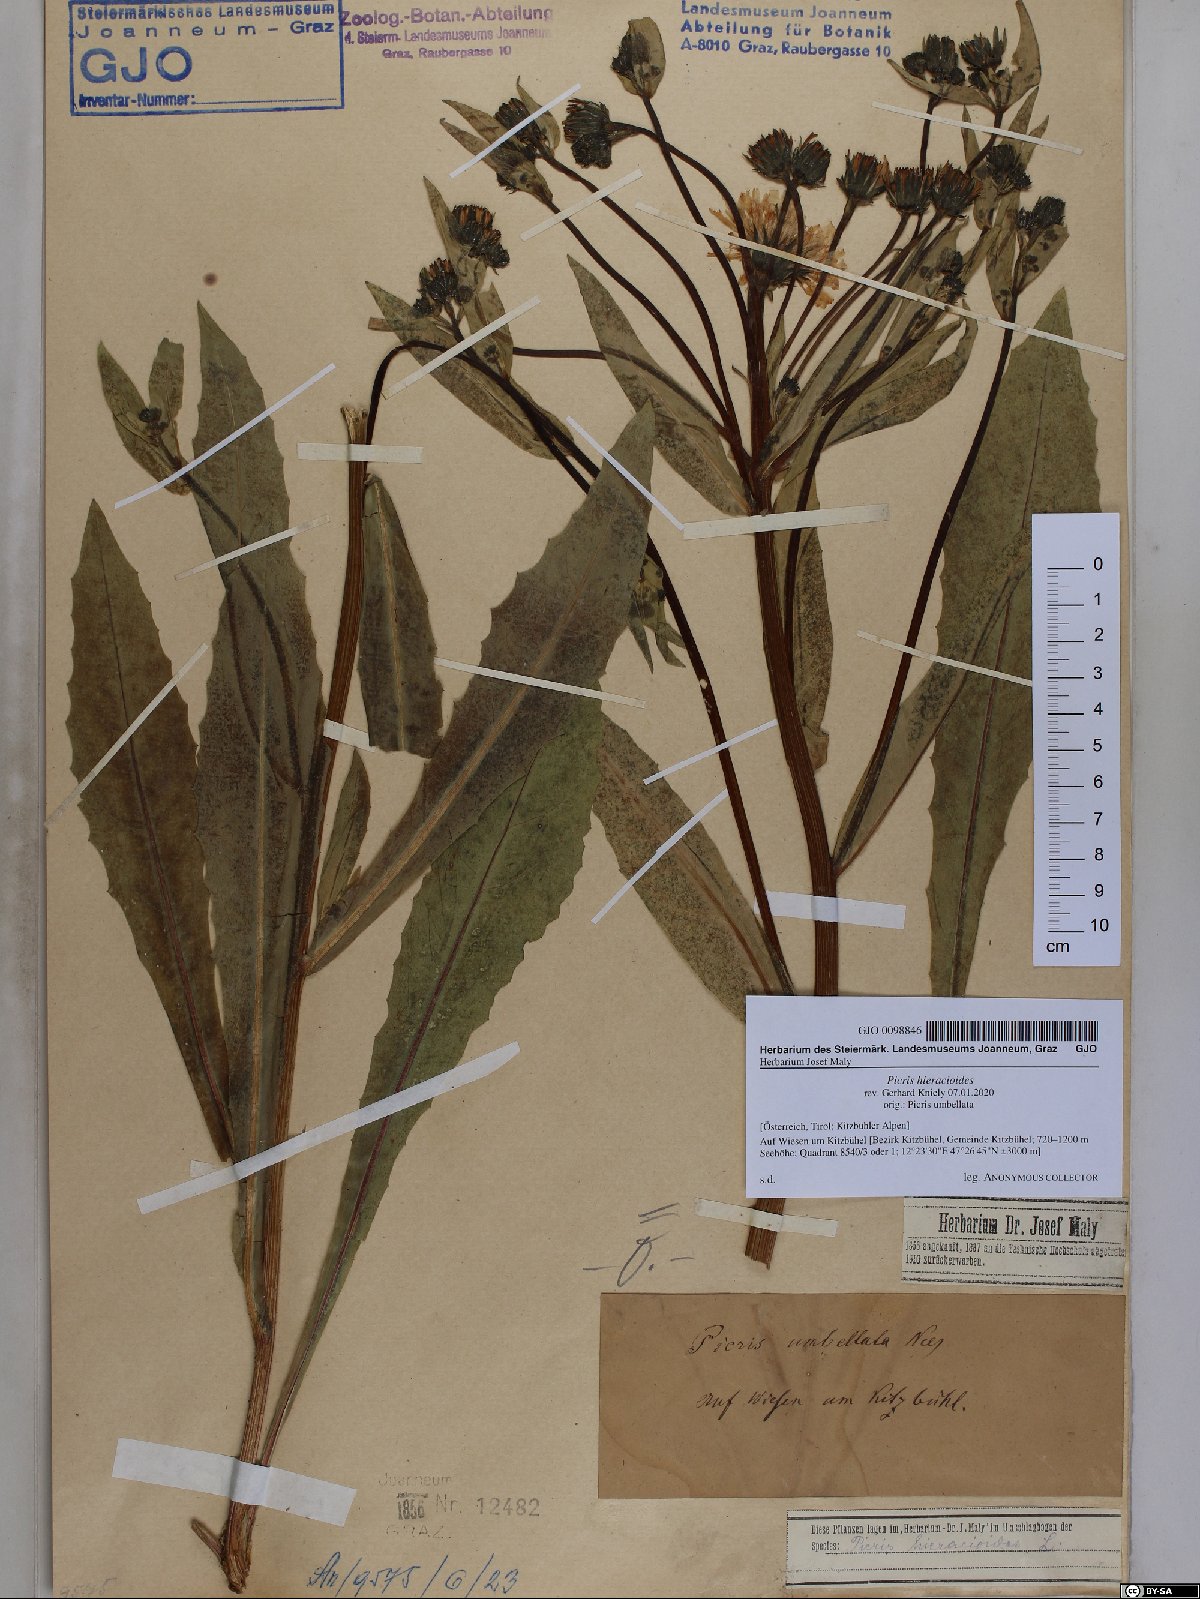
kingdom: Plantae
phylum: Tracheophyta
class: Magnoliopsida
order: Asterales
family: Asteraceae
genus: Picris
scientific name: Picris hieracioides
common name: Hawkweed oxtongue
